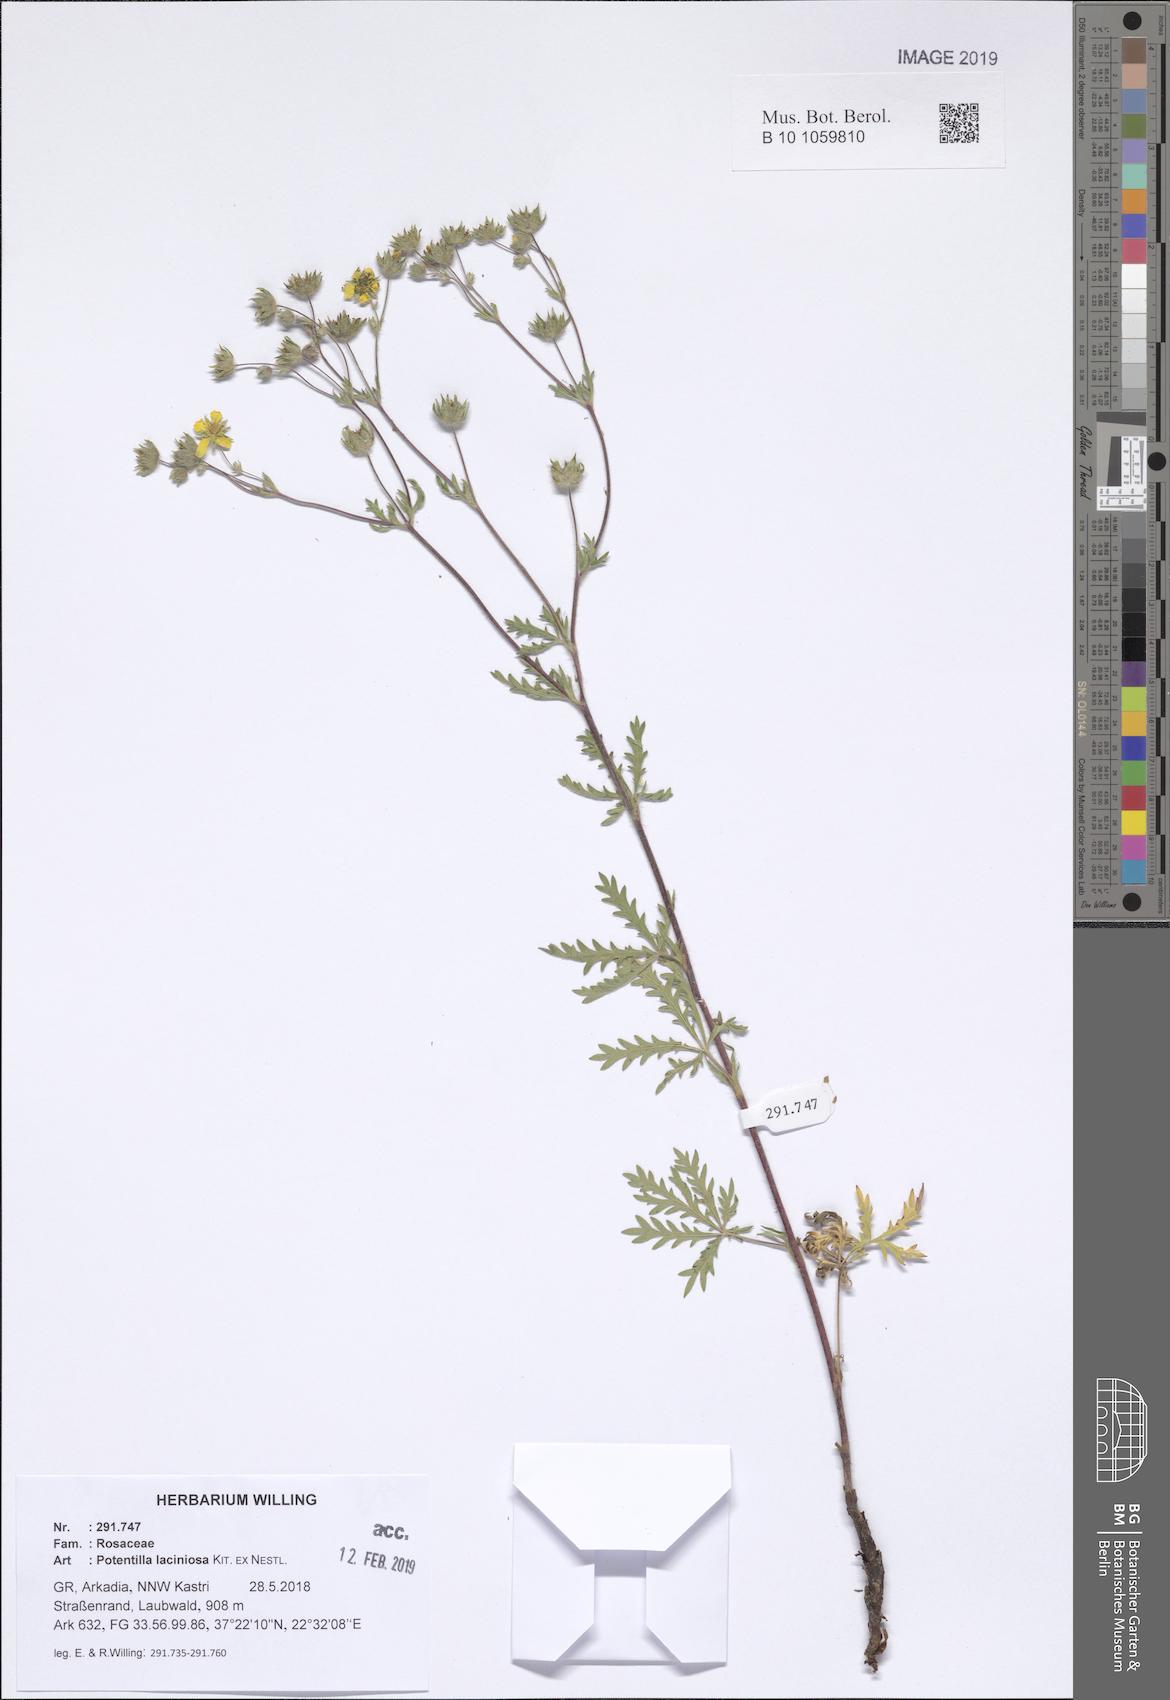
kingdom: Plantae
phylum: Tracheophyta
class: Magnoliopsida
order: Rosales
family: Rosaceae
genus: Potentilla
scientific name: Potentilla recta
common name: Sulphur cinquefoil
